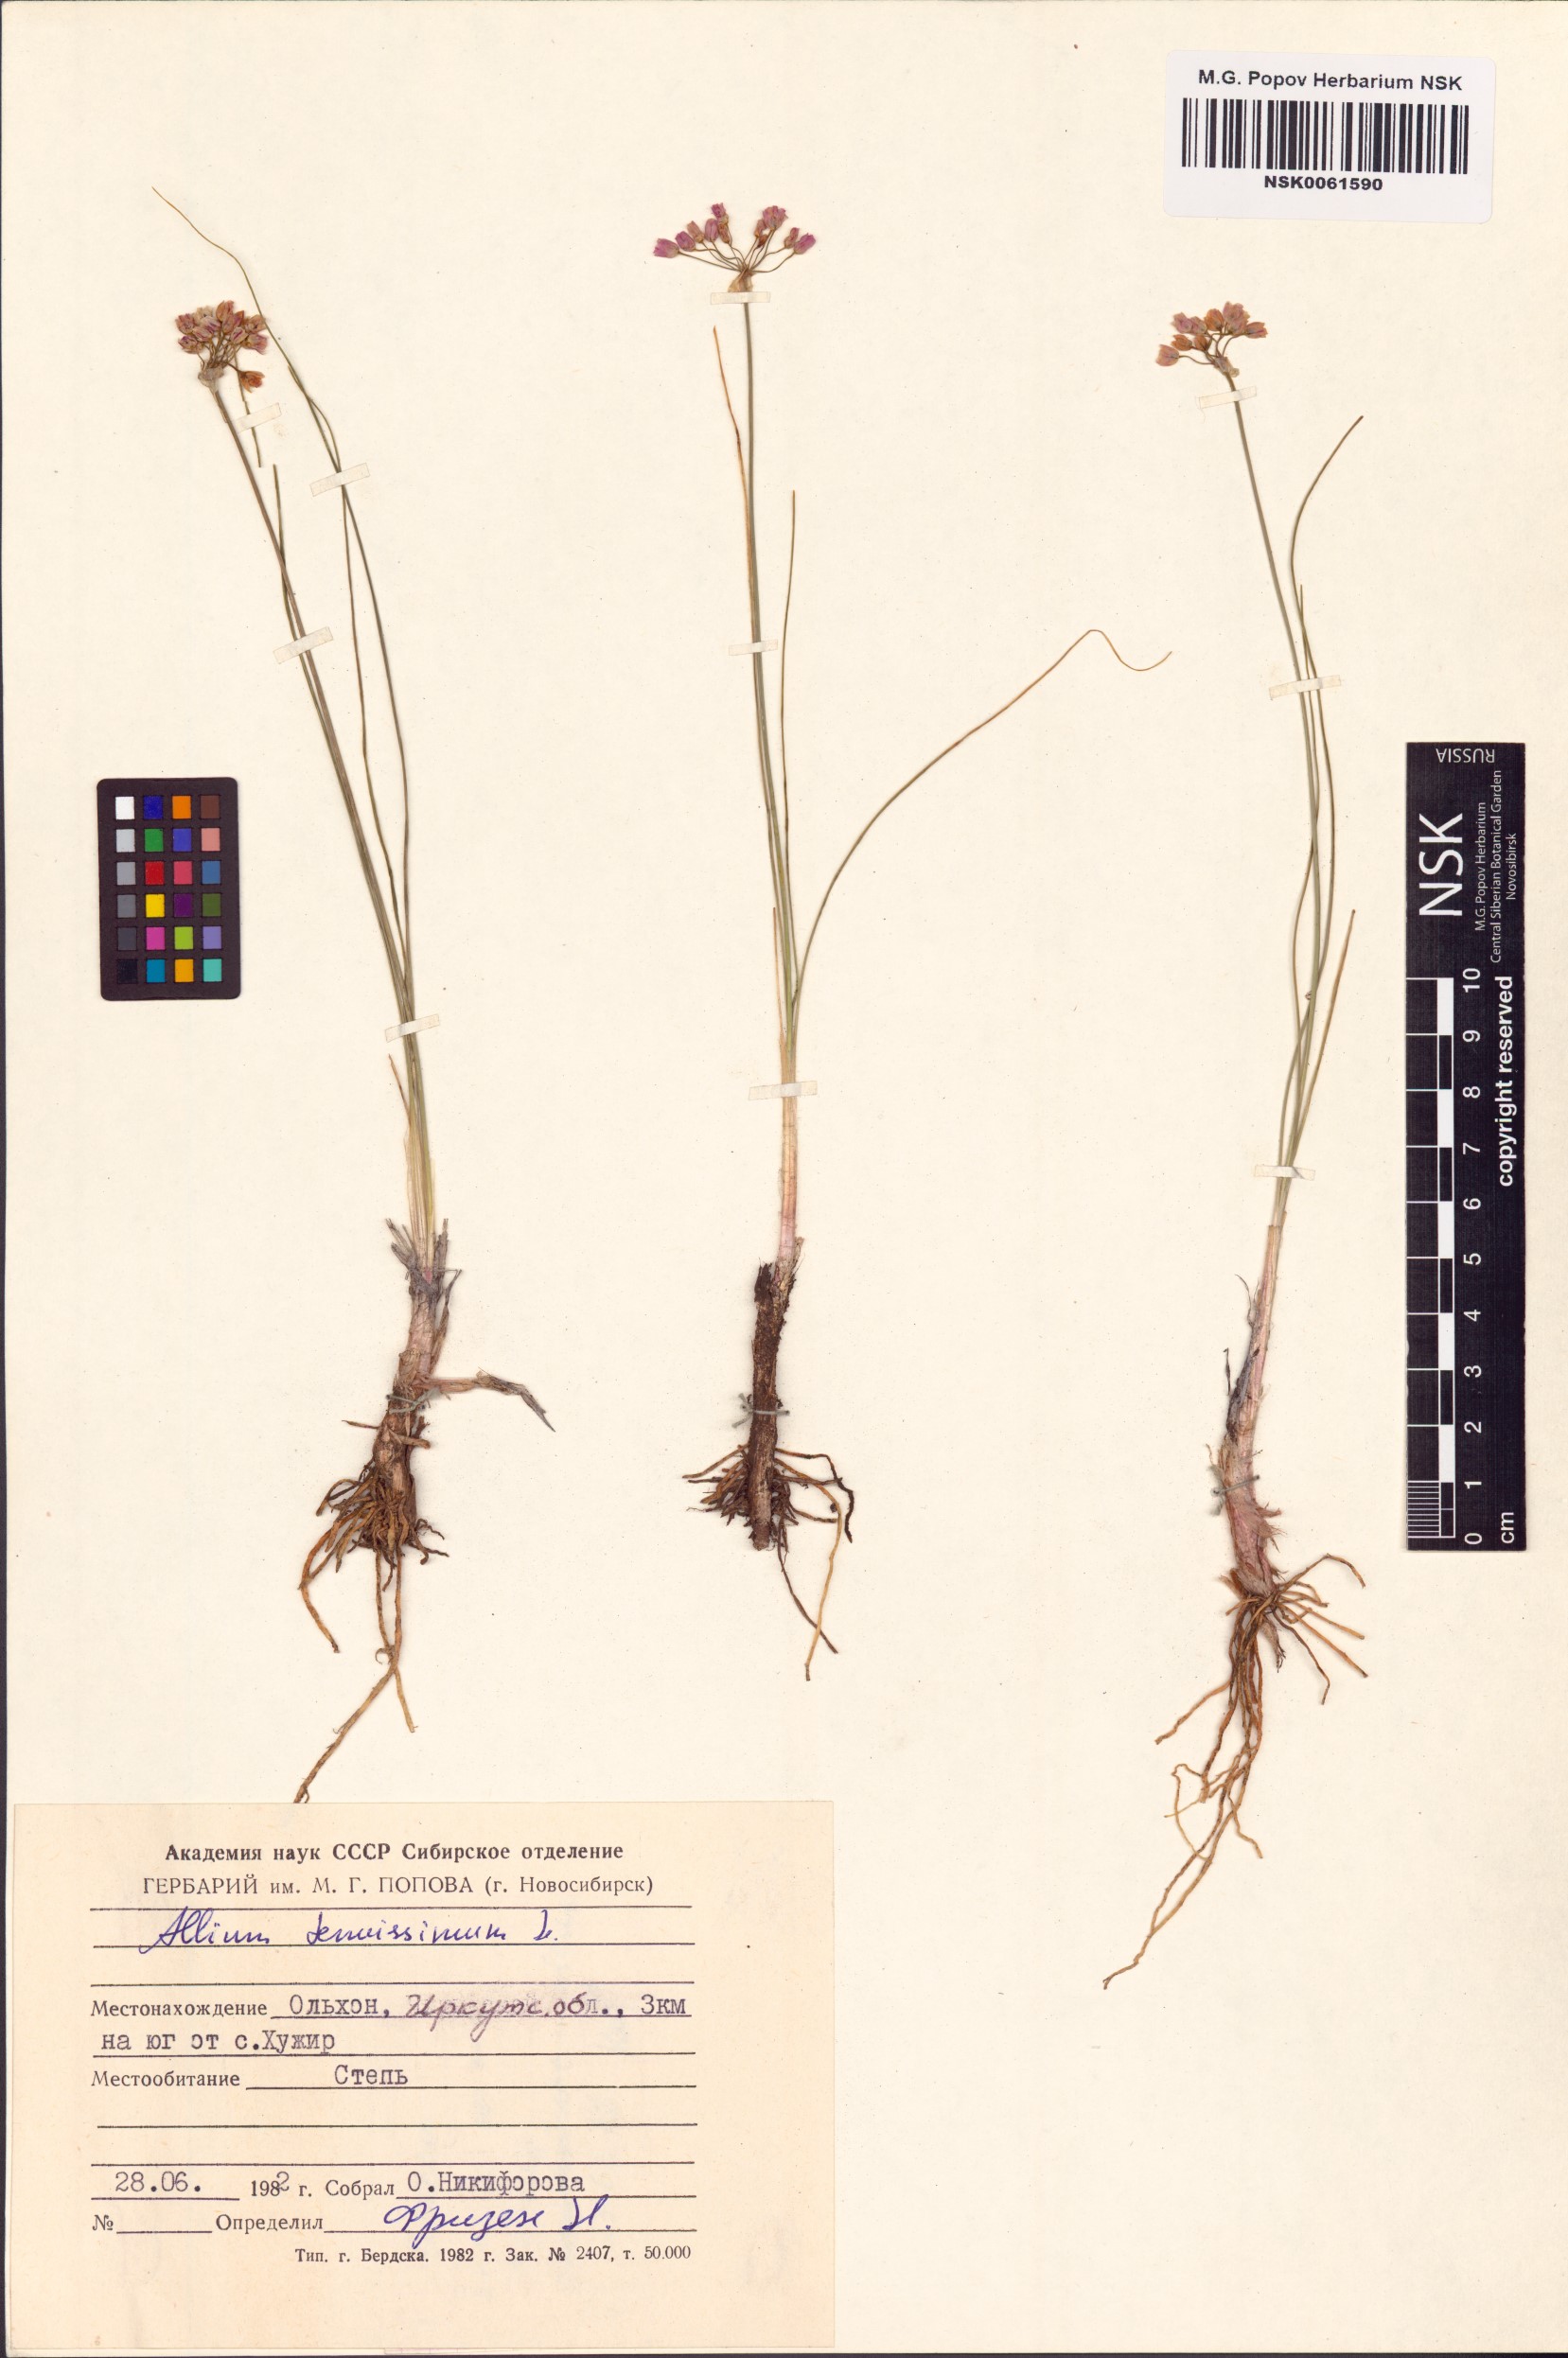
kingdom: Plantae
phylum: Tracheophyta
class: Liliopsida
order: Asparagales
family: Amaryllidaceae
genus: Allium
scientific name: Allium tenuissimum
